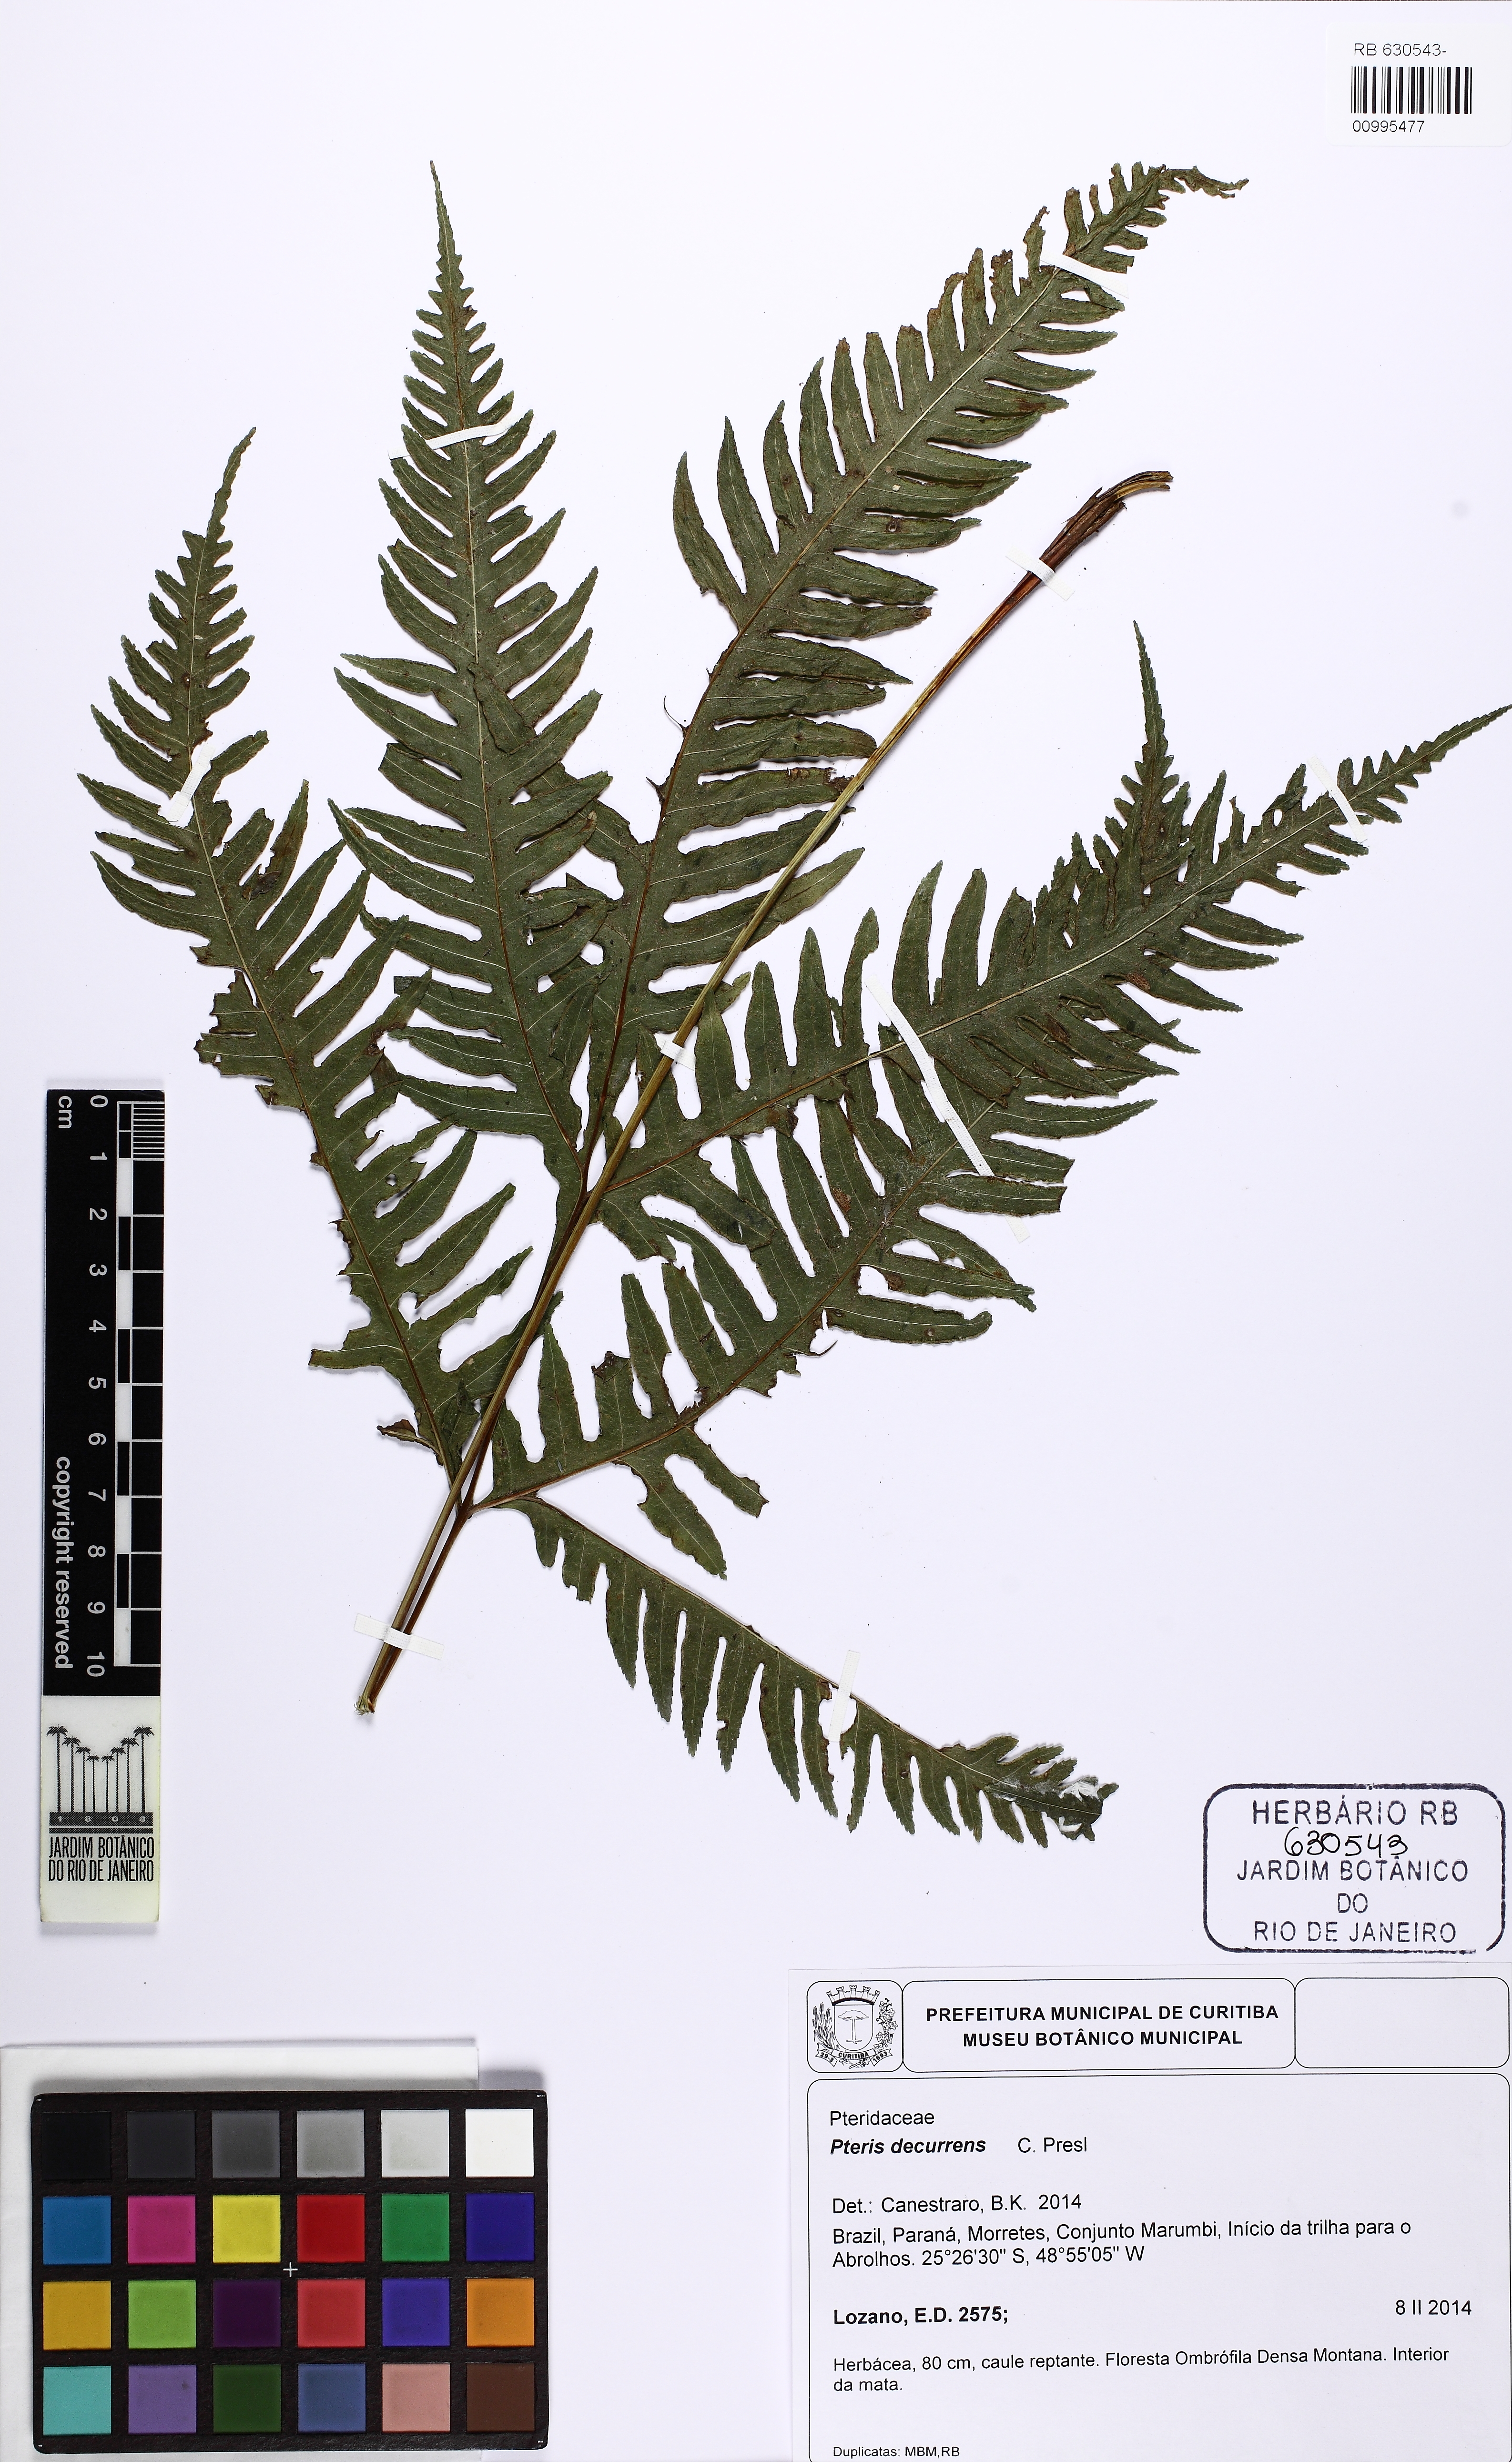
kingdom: Plantae
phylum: Tracheophyta
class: Polypodiopsida
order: Polypodiales
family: Pteridaceae
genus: Pteris
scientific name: Pteris decurrens
